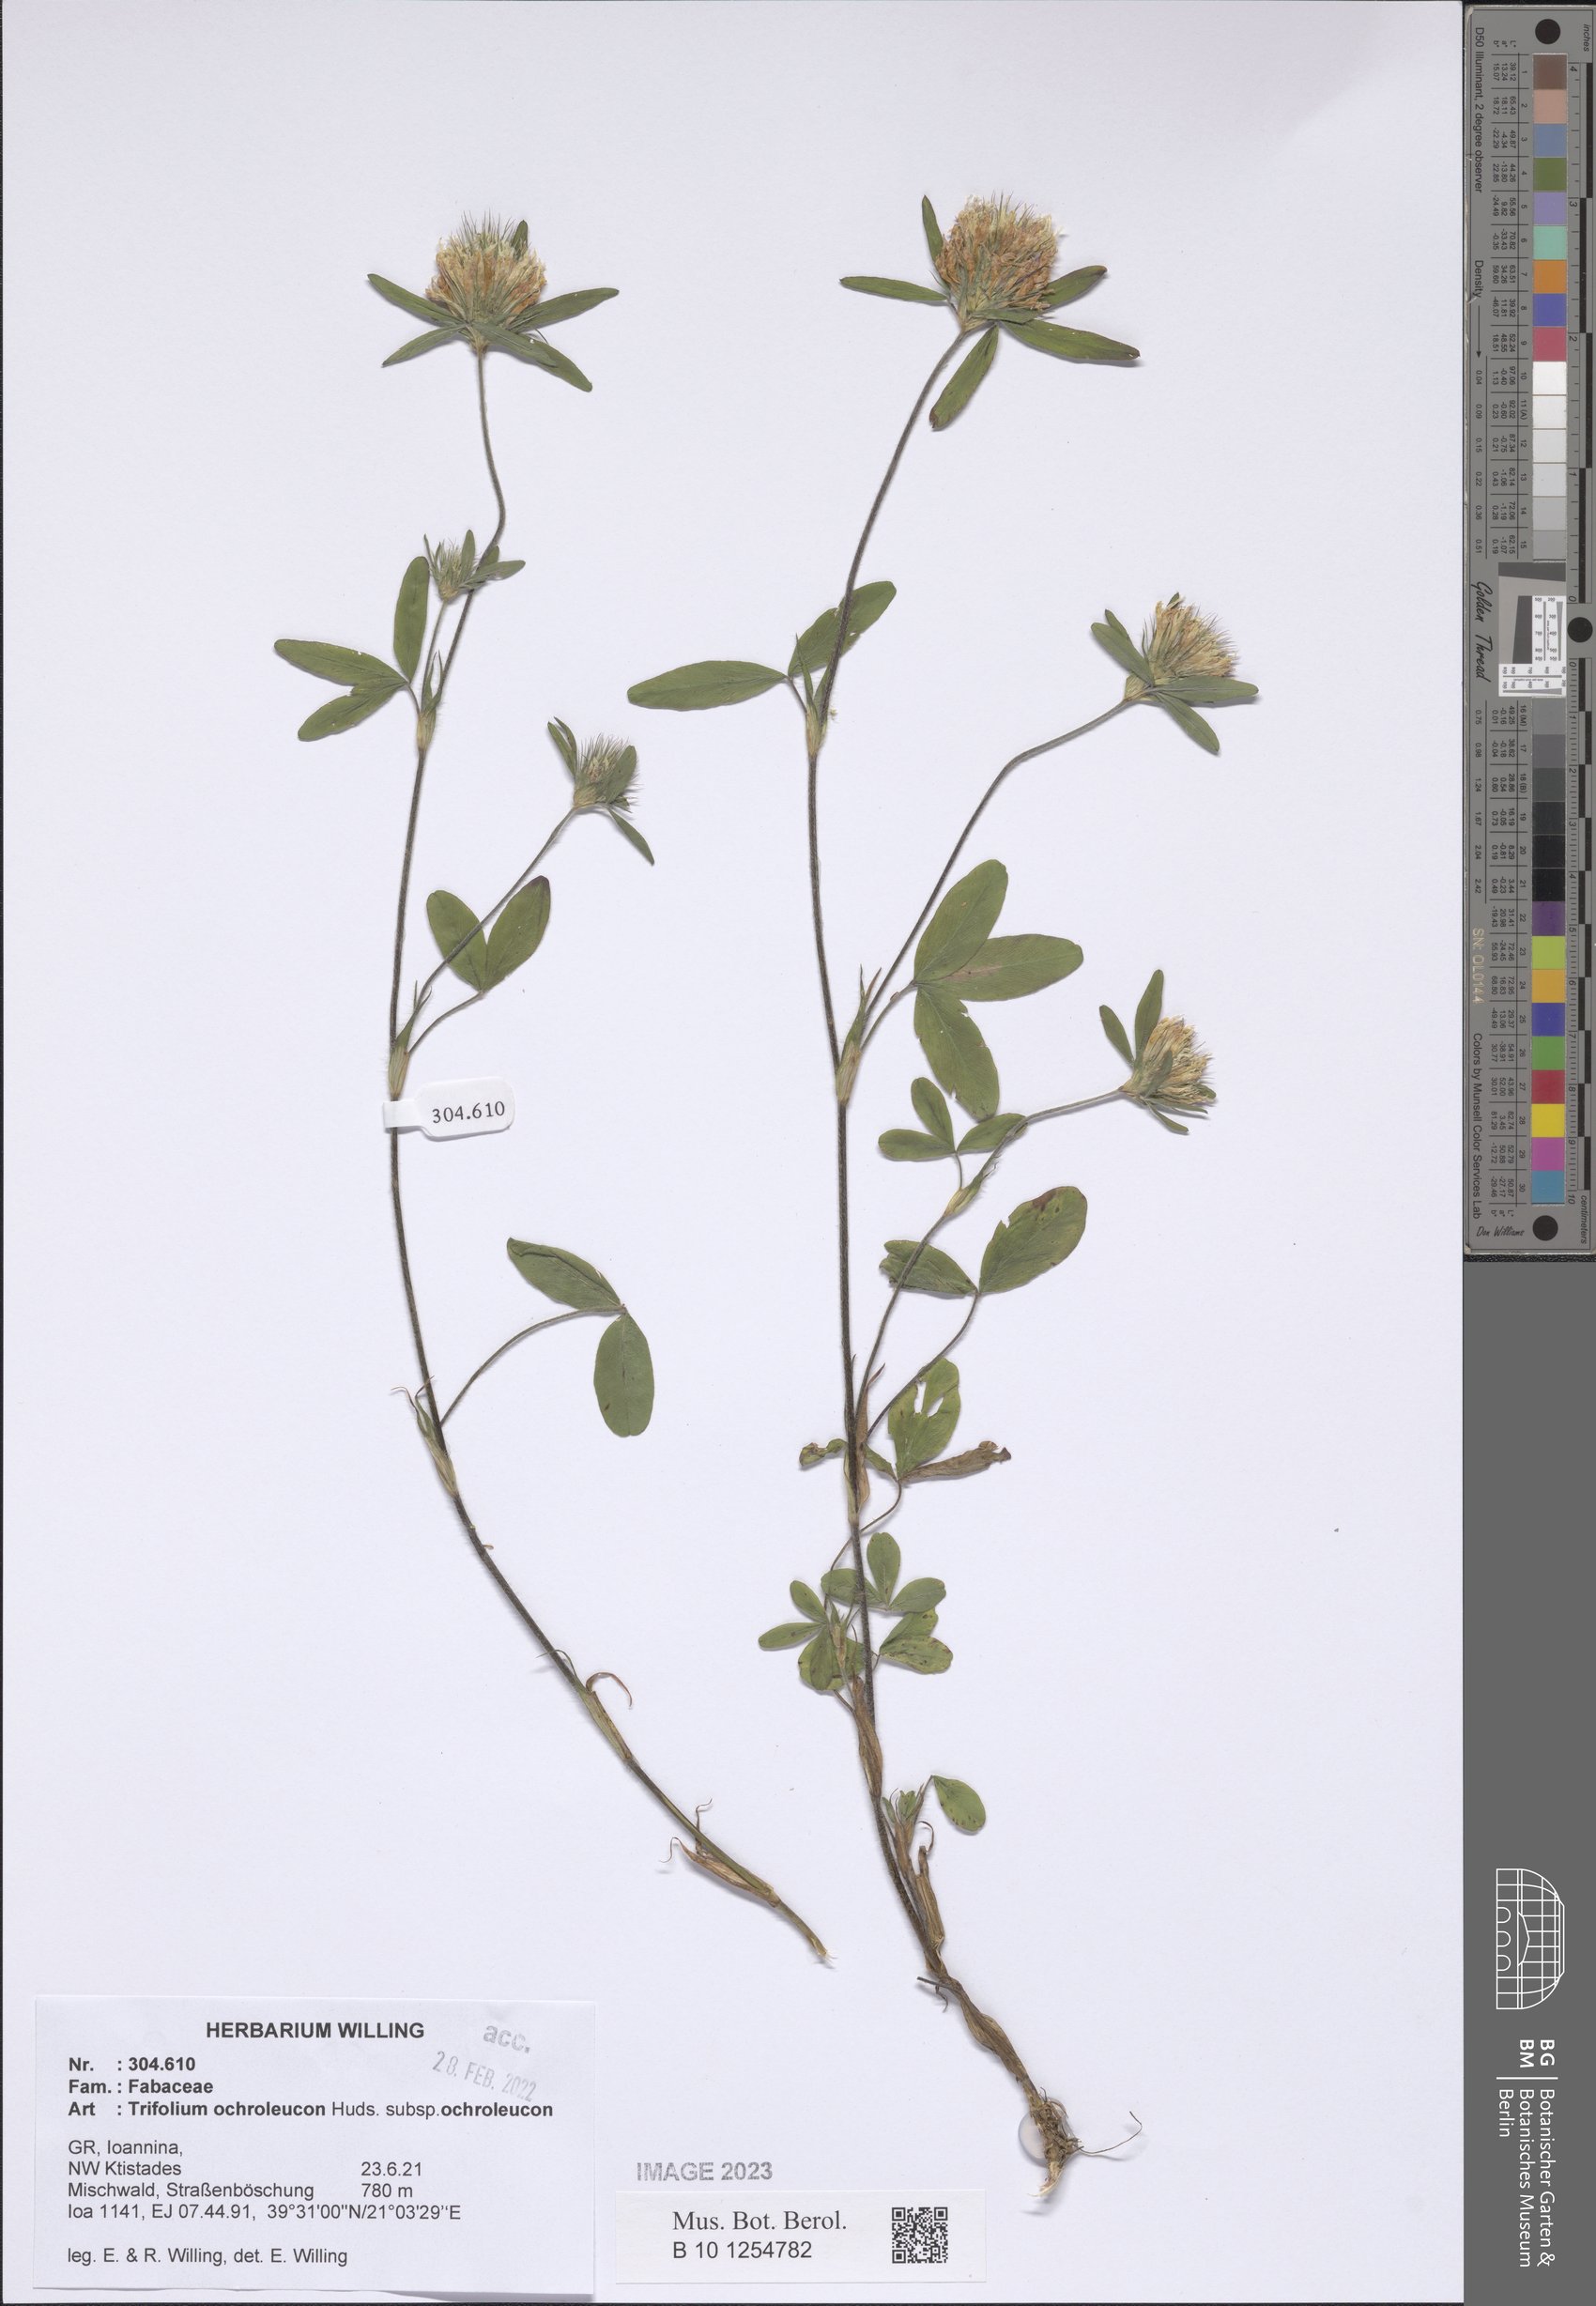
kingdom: Plantae
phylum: Tracheophyta
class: Magnoliopsida
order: Fabales
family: Fabaceae
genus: Trifolium
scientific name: Trifolium ochroleucon
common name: Sulphur clover
